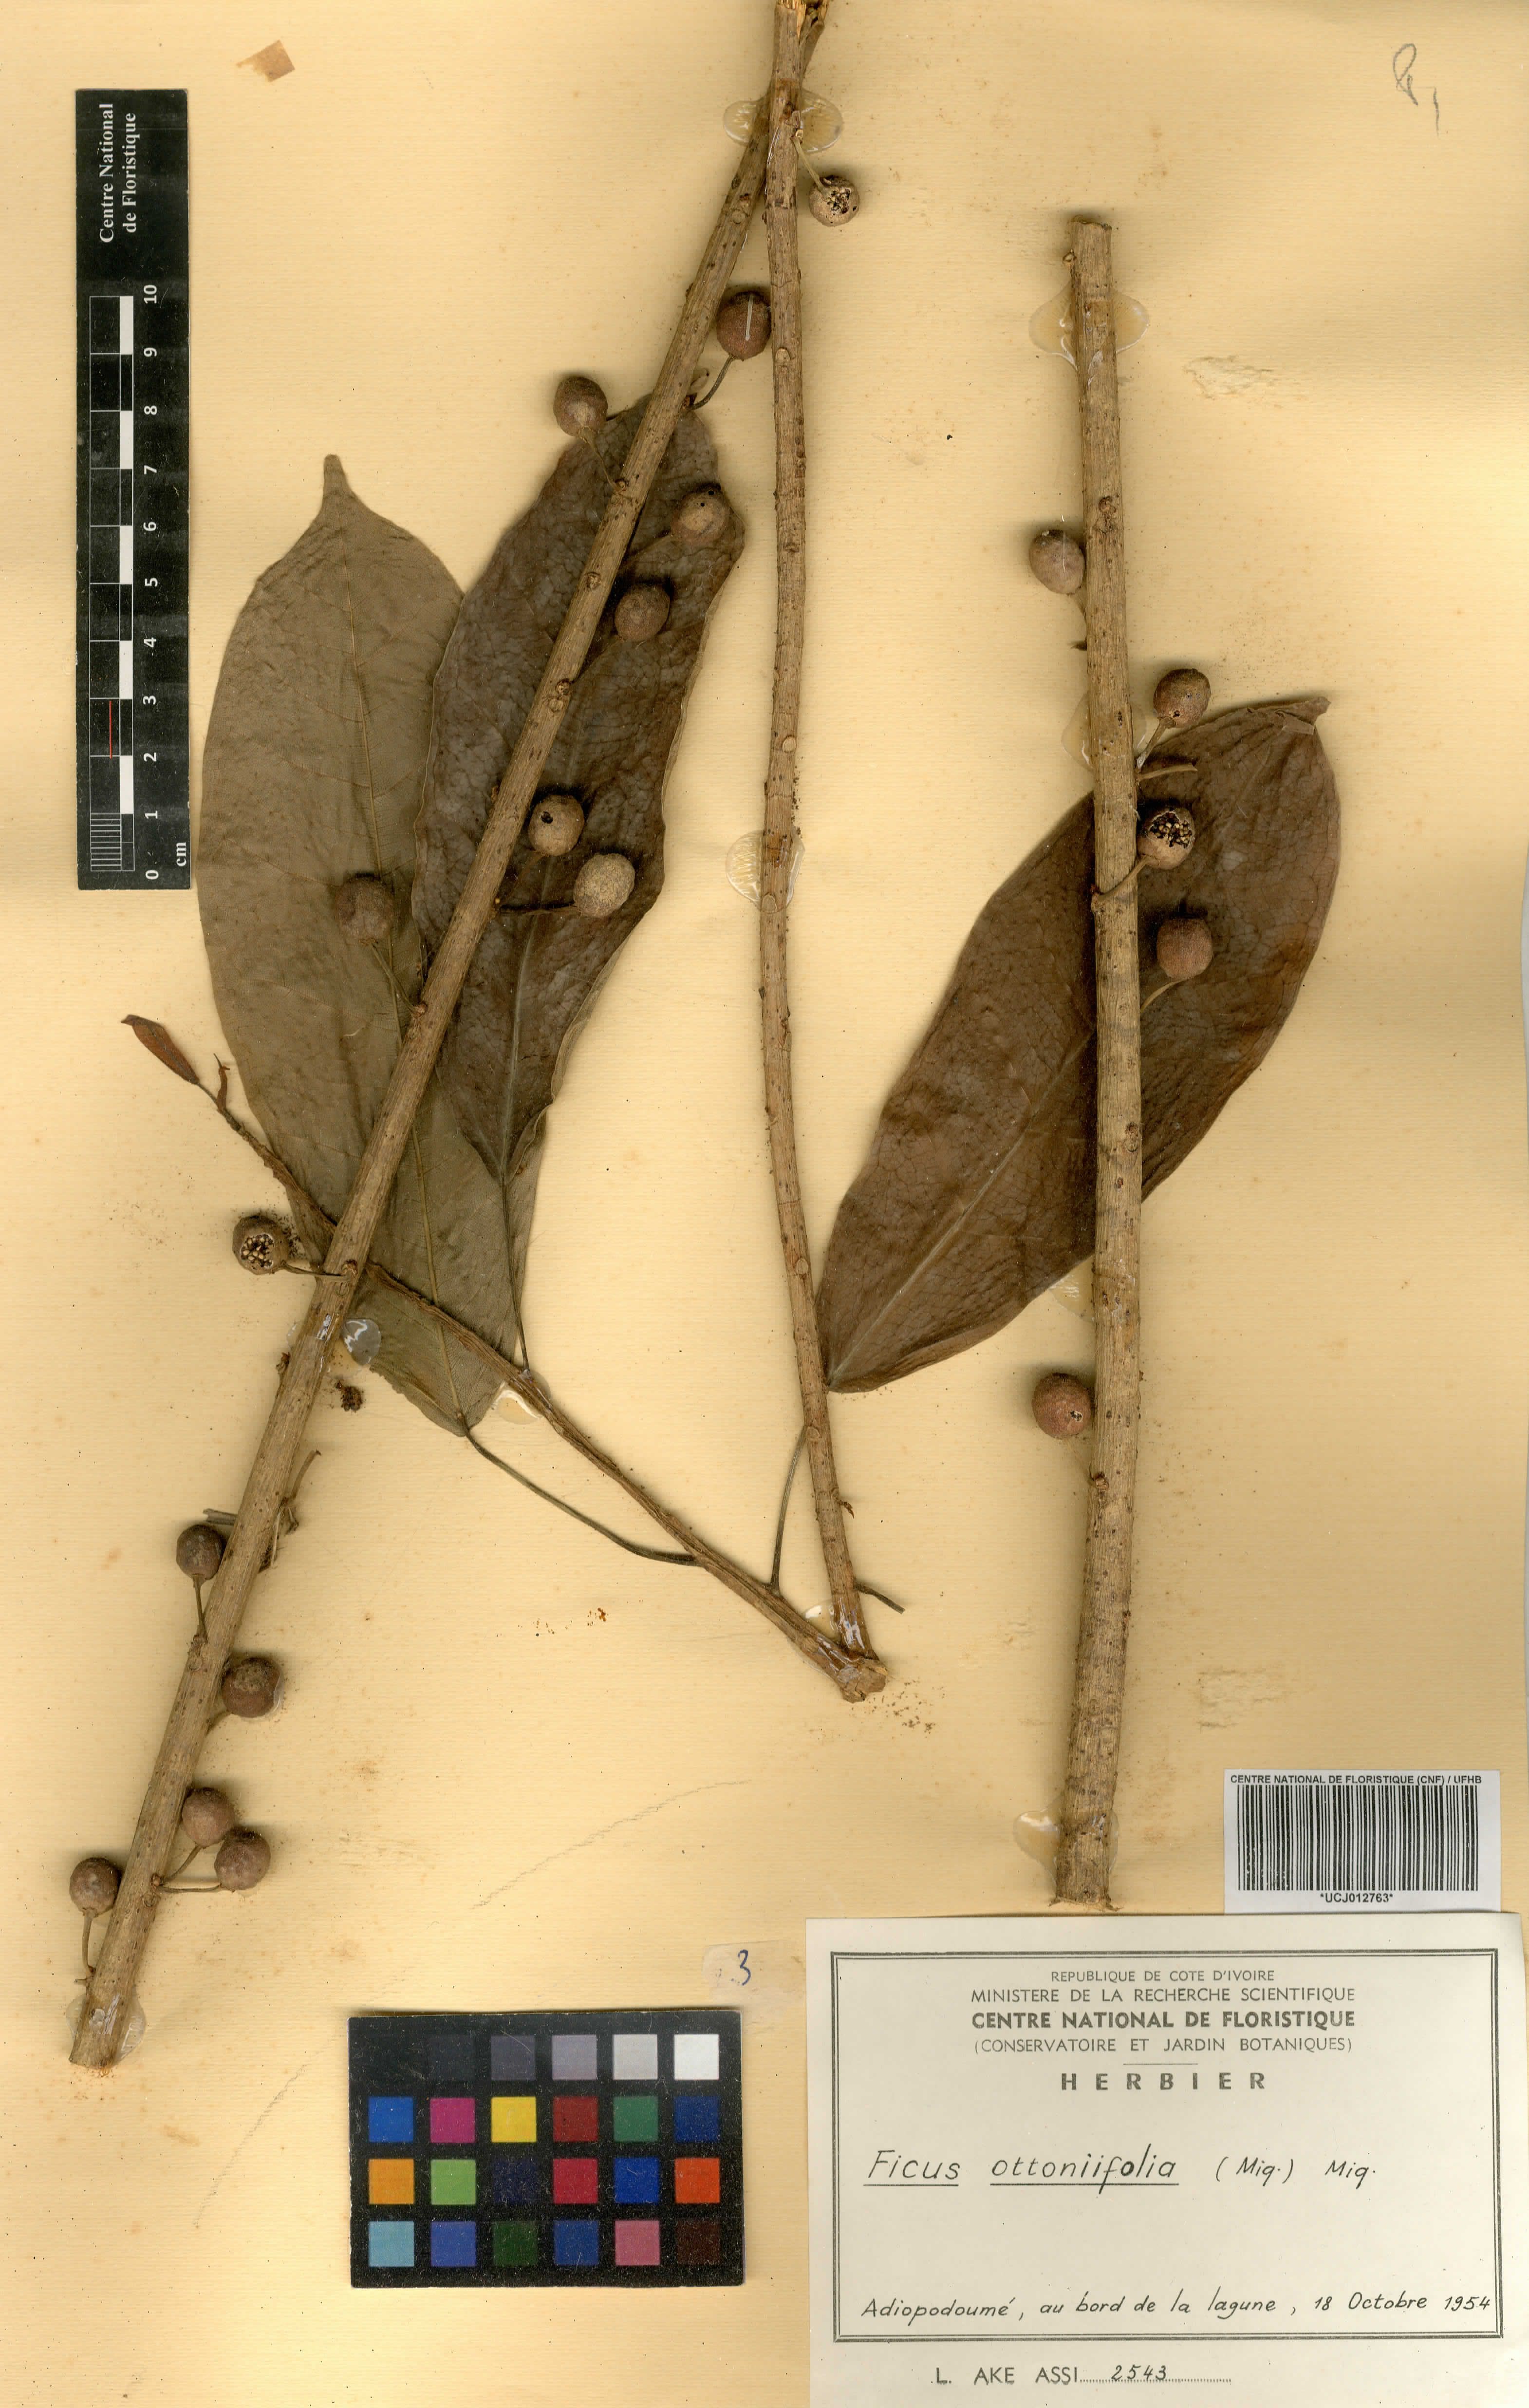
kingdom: Plantae
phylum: Tracheophyta
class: Magnoliopsida
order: Rosales
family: Moraceae
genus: Ficus
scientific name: Ficus ottoniifolia
